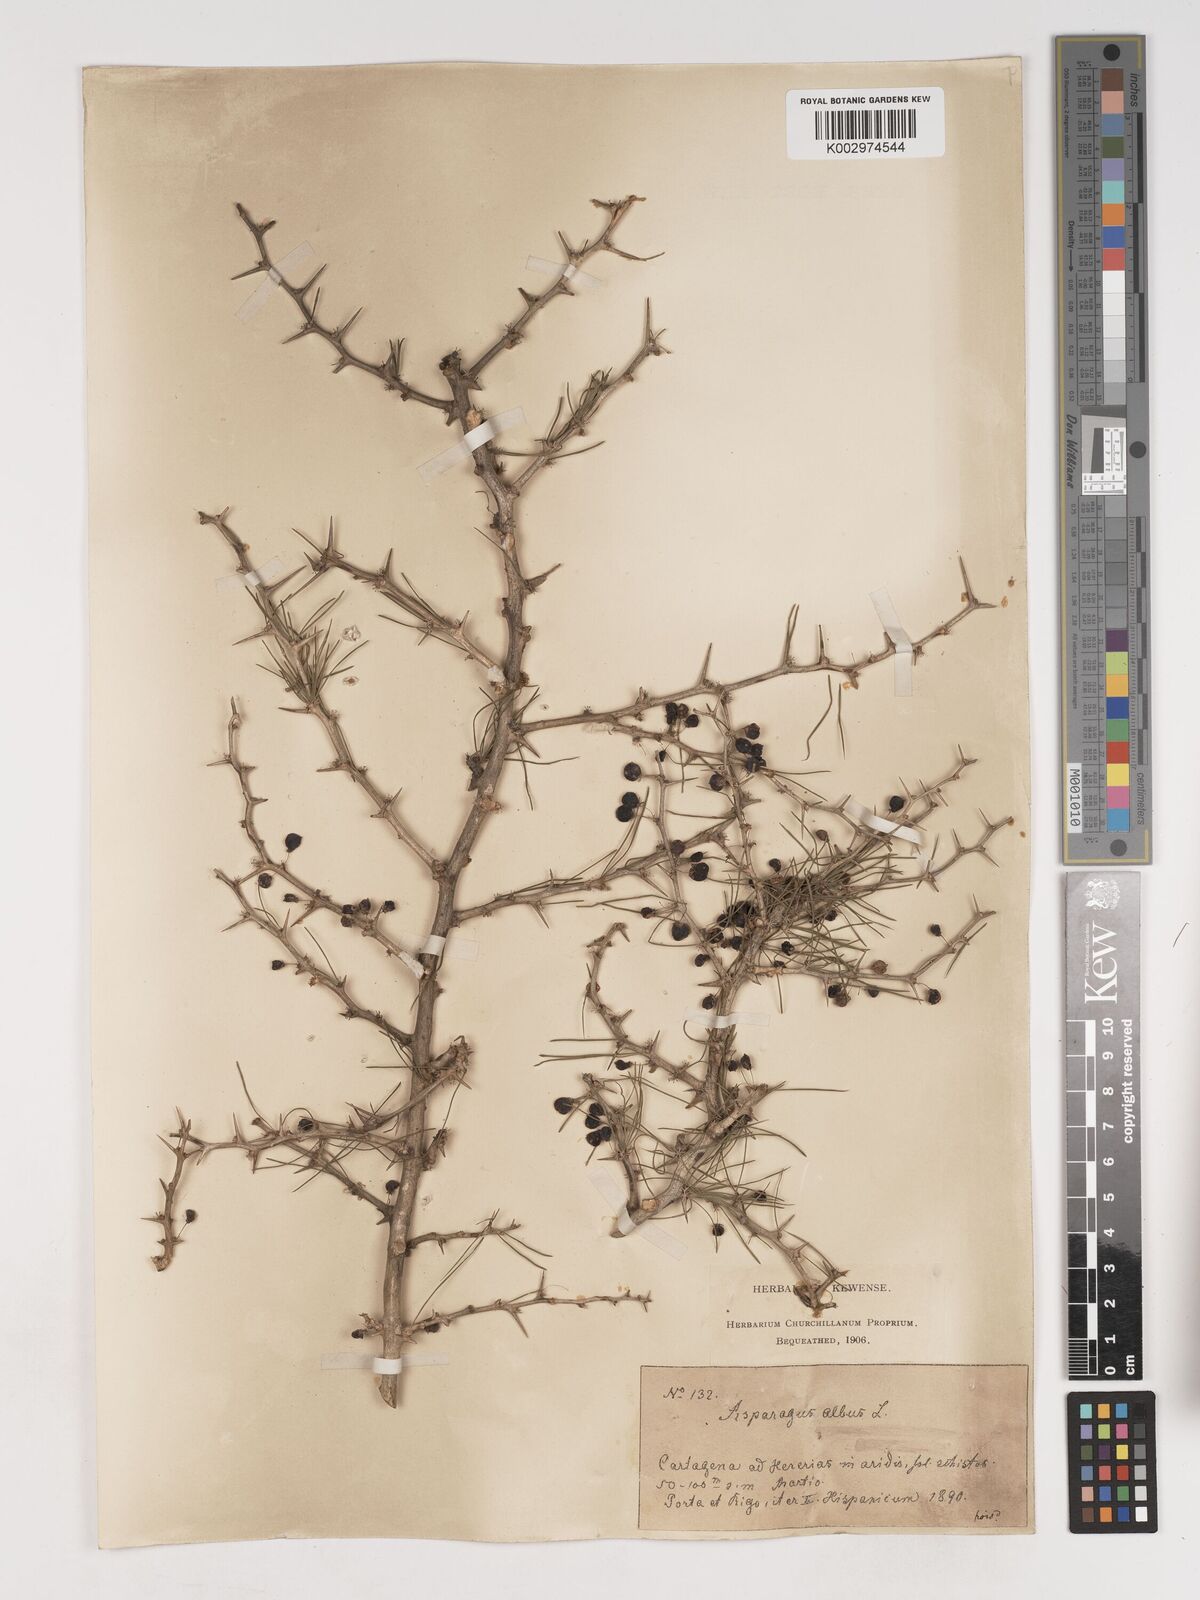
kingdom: Plantae
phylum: Tracheophyta
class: Liliopsida
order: Asparagales
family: Asparagaceae
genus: Asparagus
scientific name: Asparagus albus
